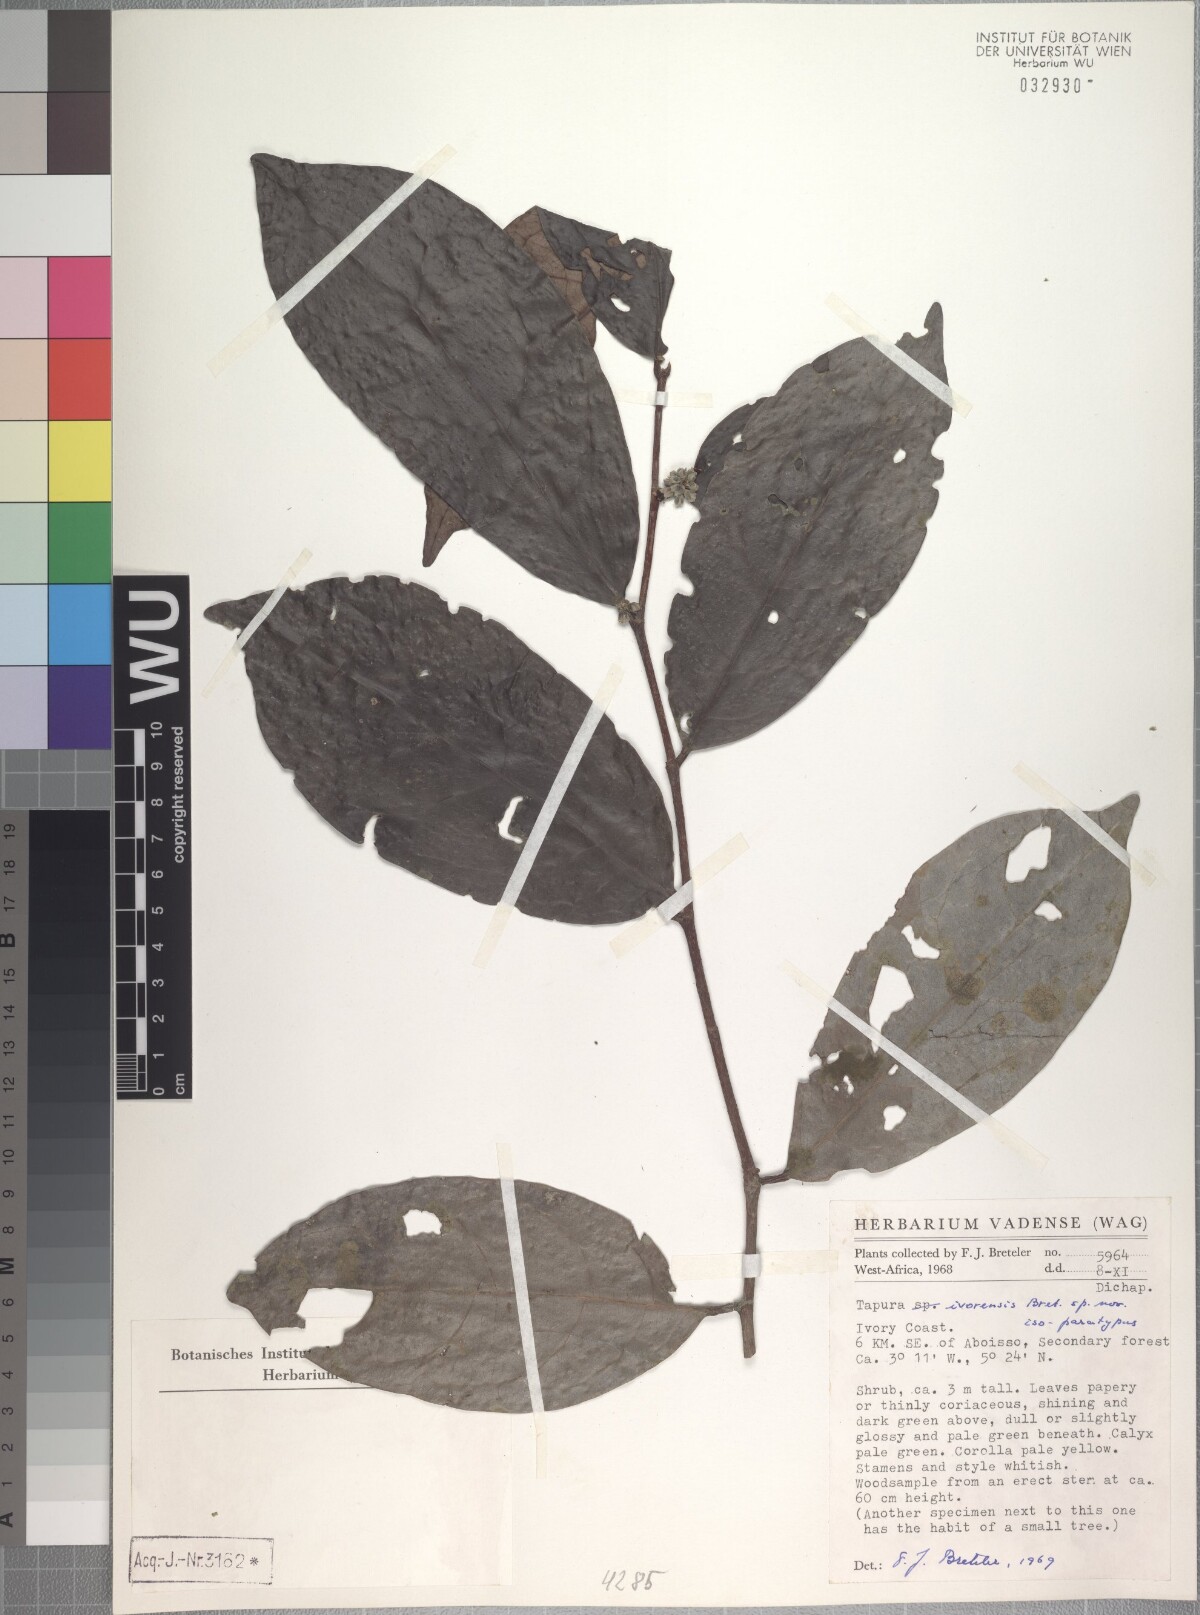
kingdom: Plantae
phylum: Tracheophyta
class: Magnoliopsida
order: Malpighiales
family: Dichapetalaceae
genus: Tapura
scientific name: Tapura ivorensis
